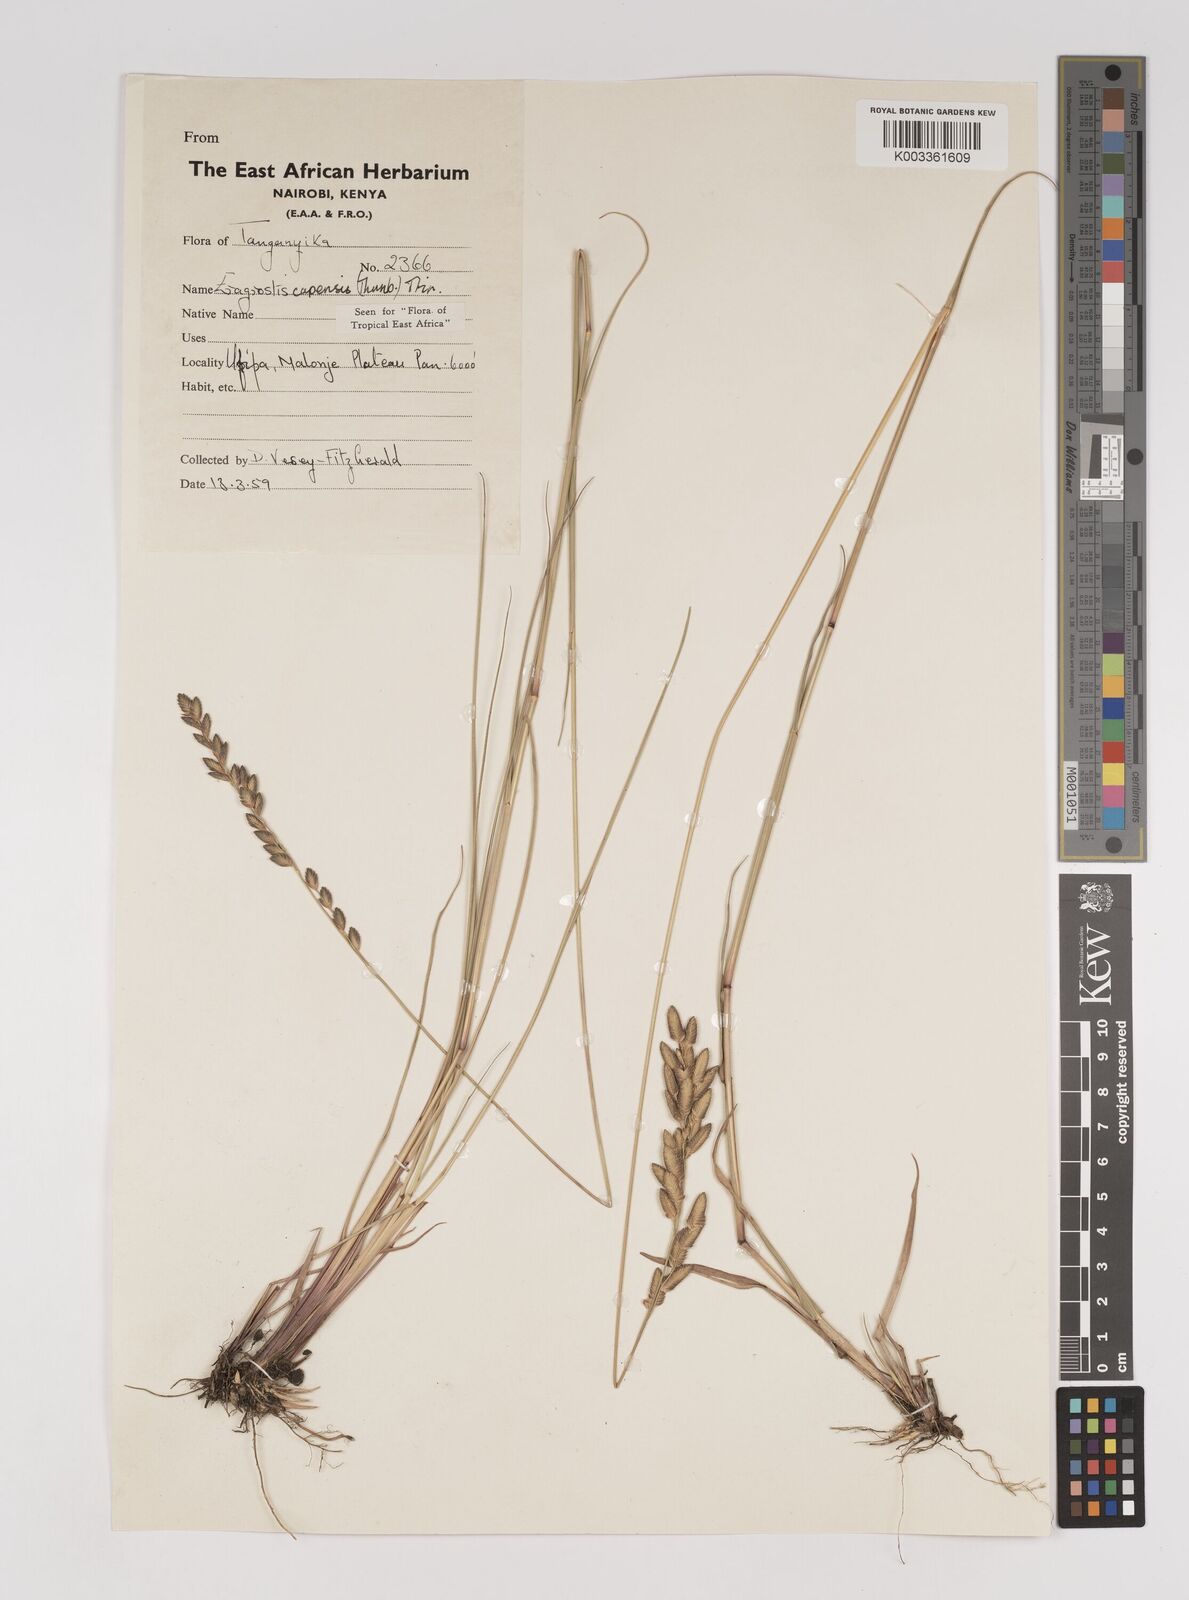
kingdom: Plantae
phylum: Tracheophyta
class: Liliopsida
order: Poales
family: Poaceae
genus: Eragrostis
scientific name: Eragrostis capensis
